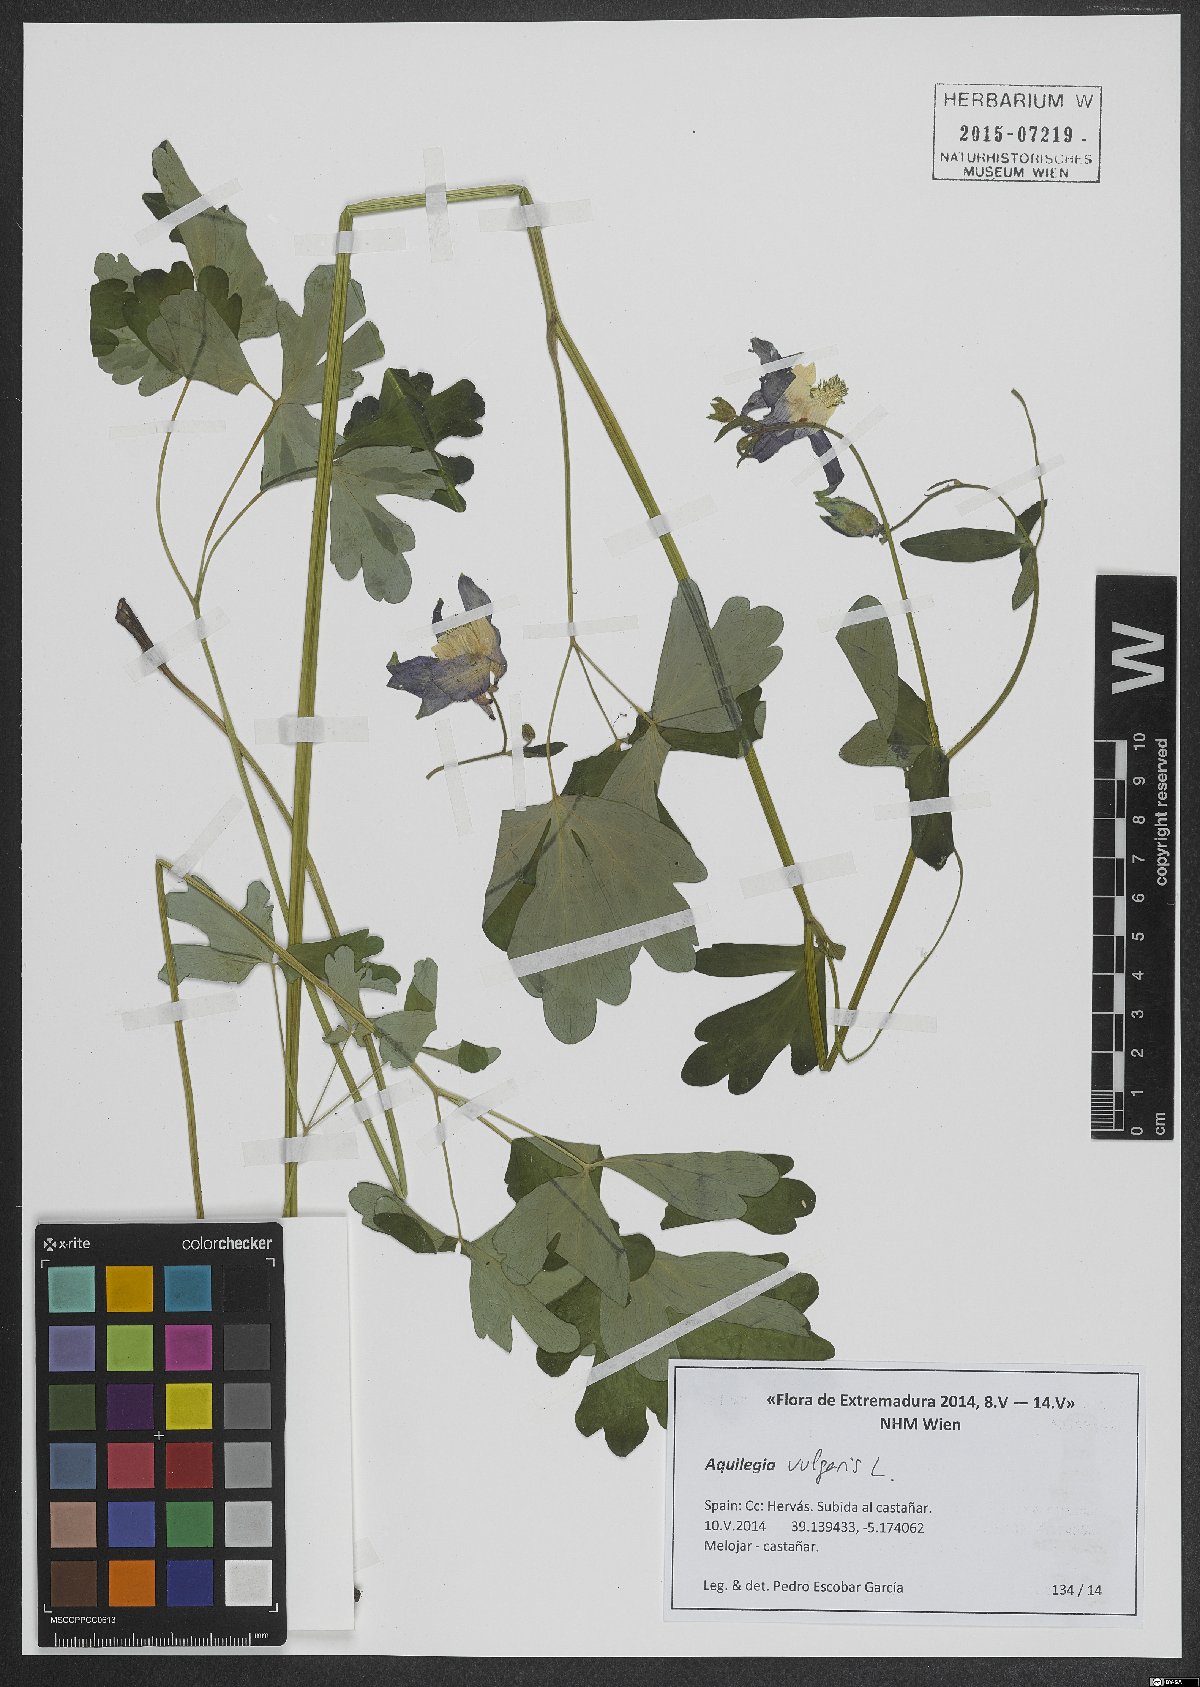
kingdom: Plantae
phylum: Tracheophyta
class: Magnoliopsida
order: Ranunculales
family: Ranunculaceae
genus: Aquilegia
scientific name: Aquilegia vulgaris
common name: Columbine
